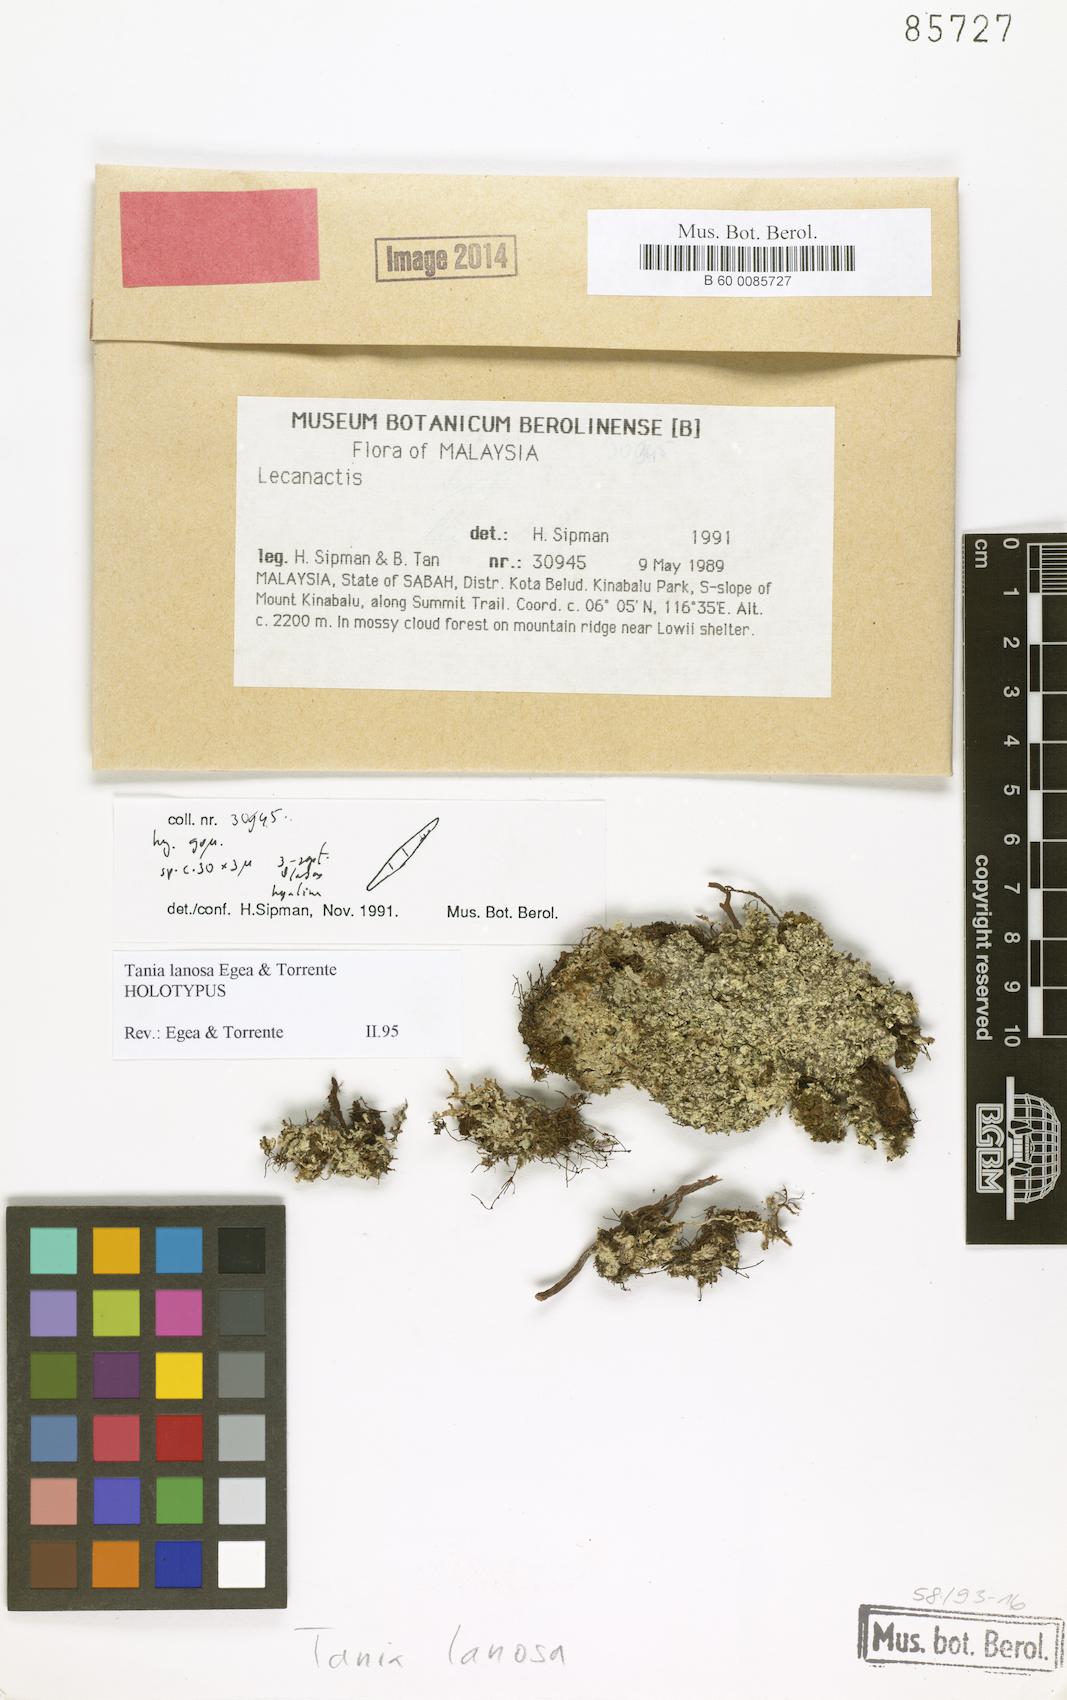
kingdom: Fungi
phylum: Ascomycota
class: Arthoniomycetes
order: Arthoniales
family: Roccellaceae
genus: Tania
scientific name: Tania lanosa
